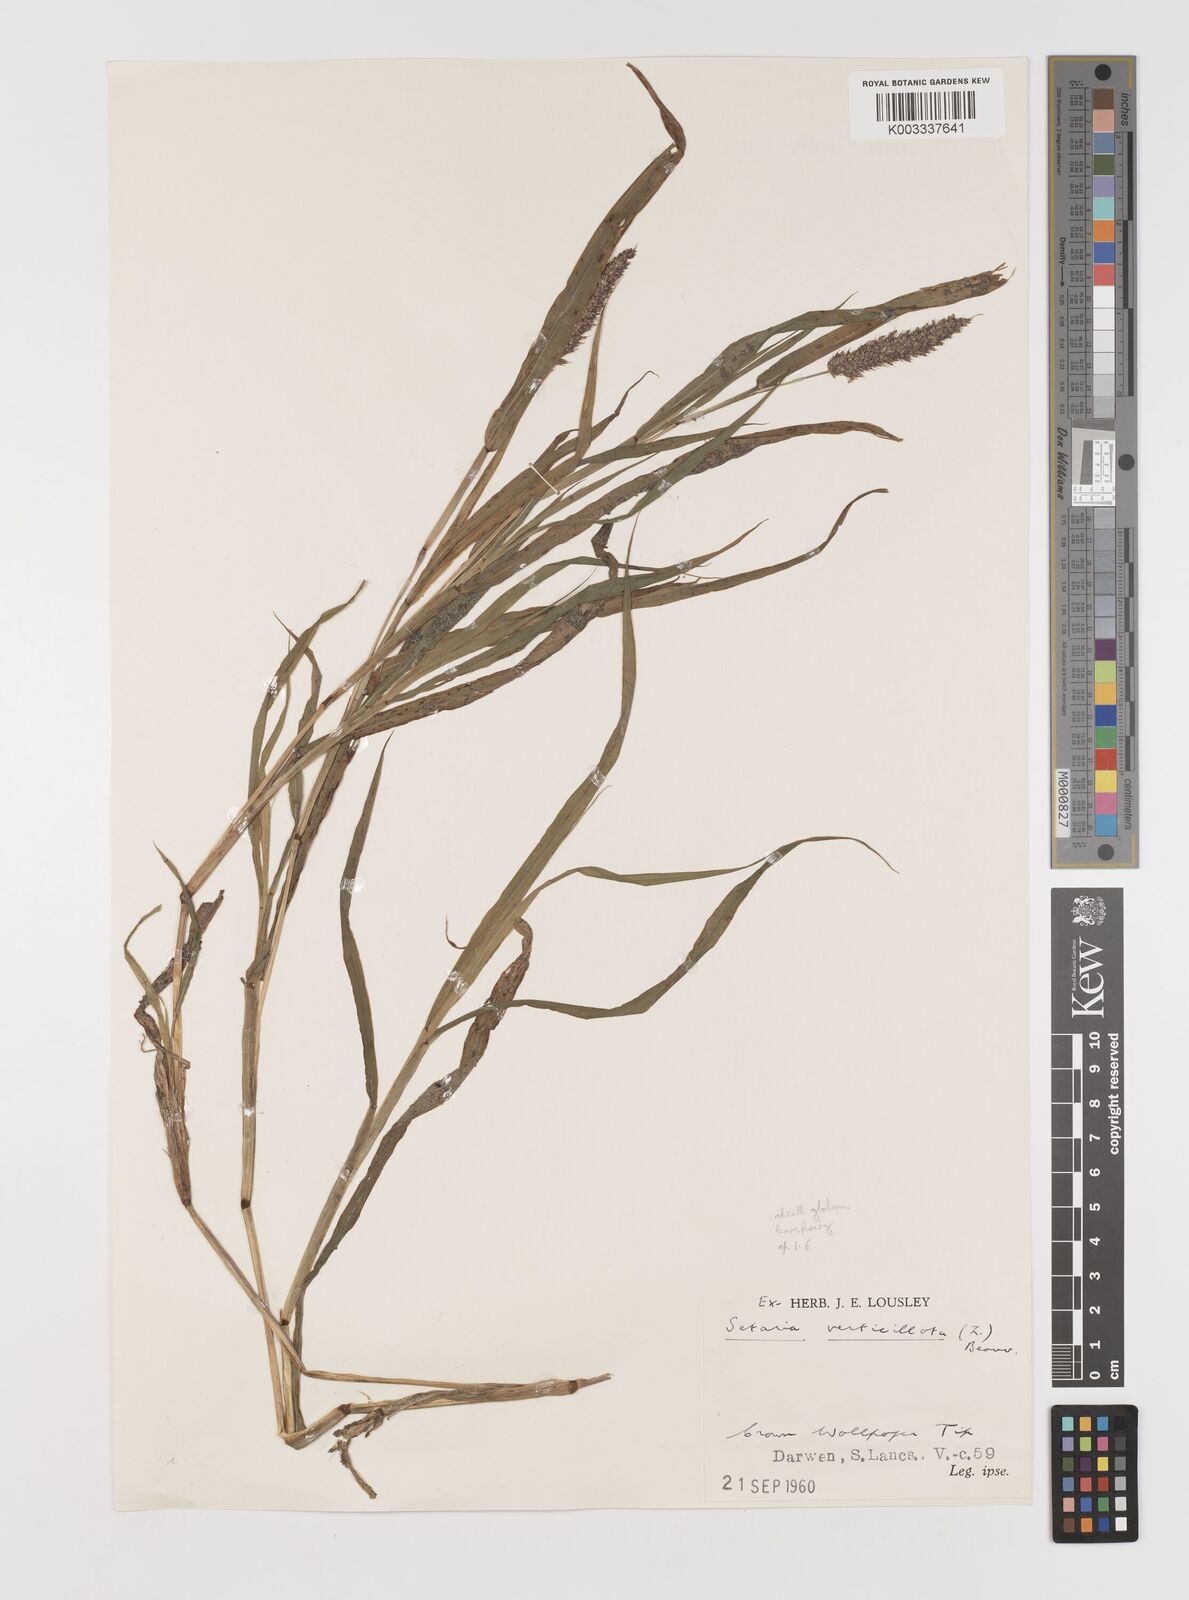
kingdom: Plantae
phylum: Tracheophyta
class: Liliopsida
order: Poales
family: Poaceae
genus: Setaria
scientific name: Setaria verticillata
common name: Hooked bristlegrass
